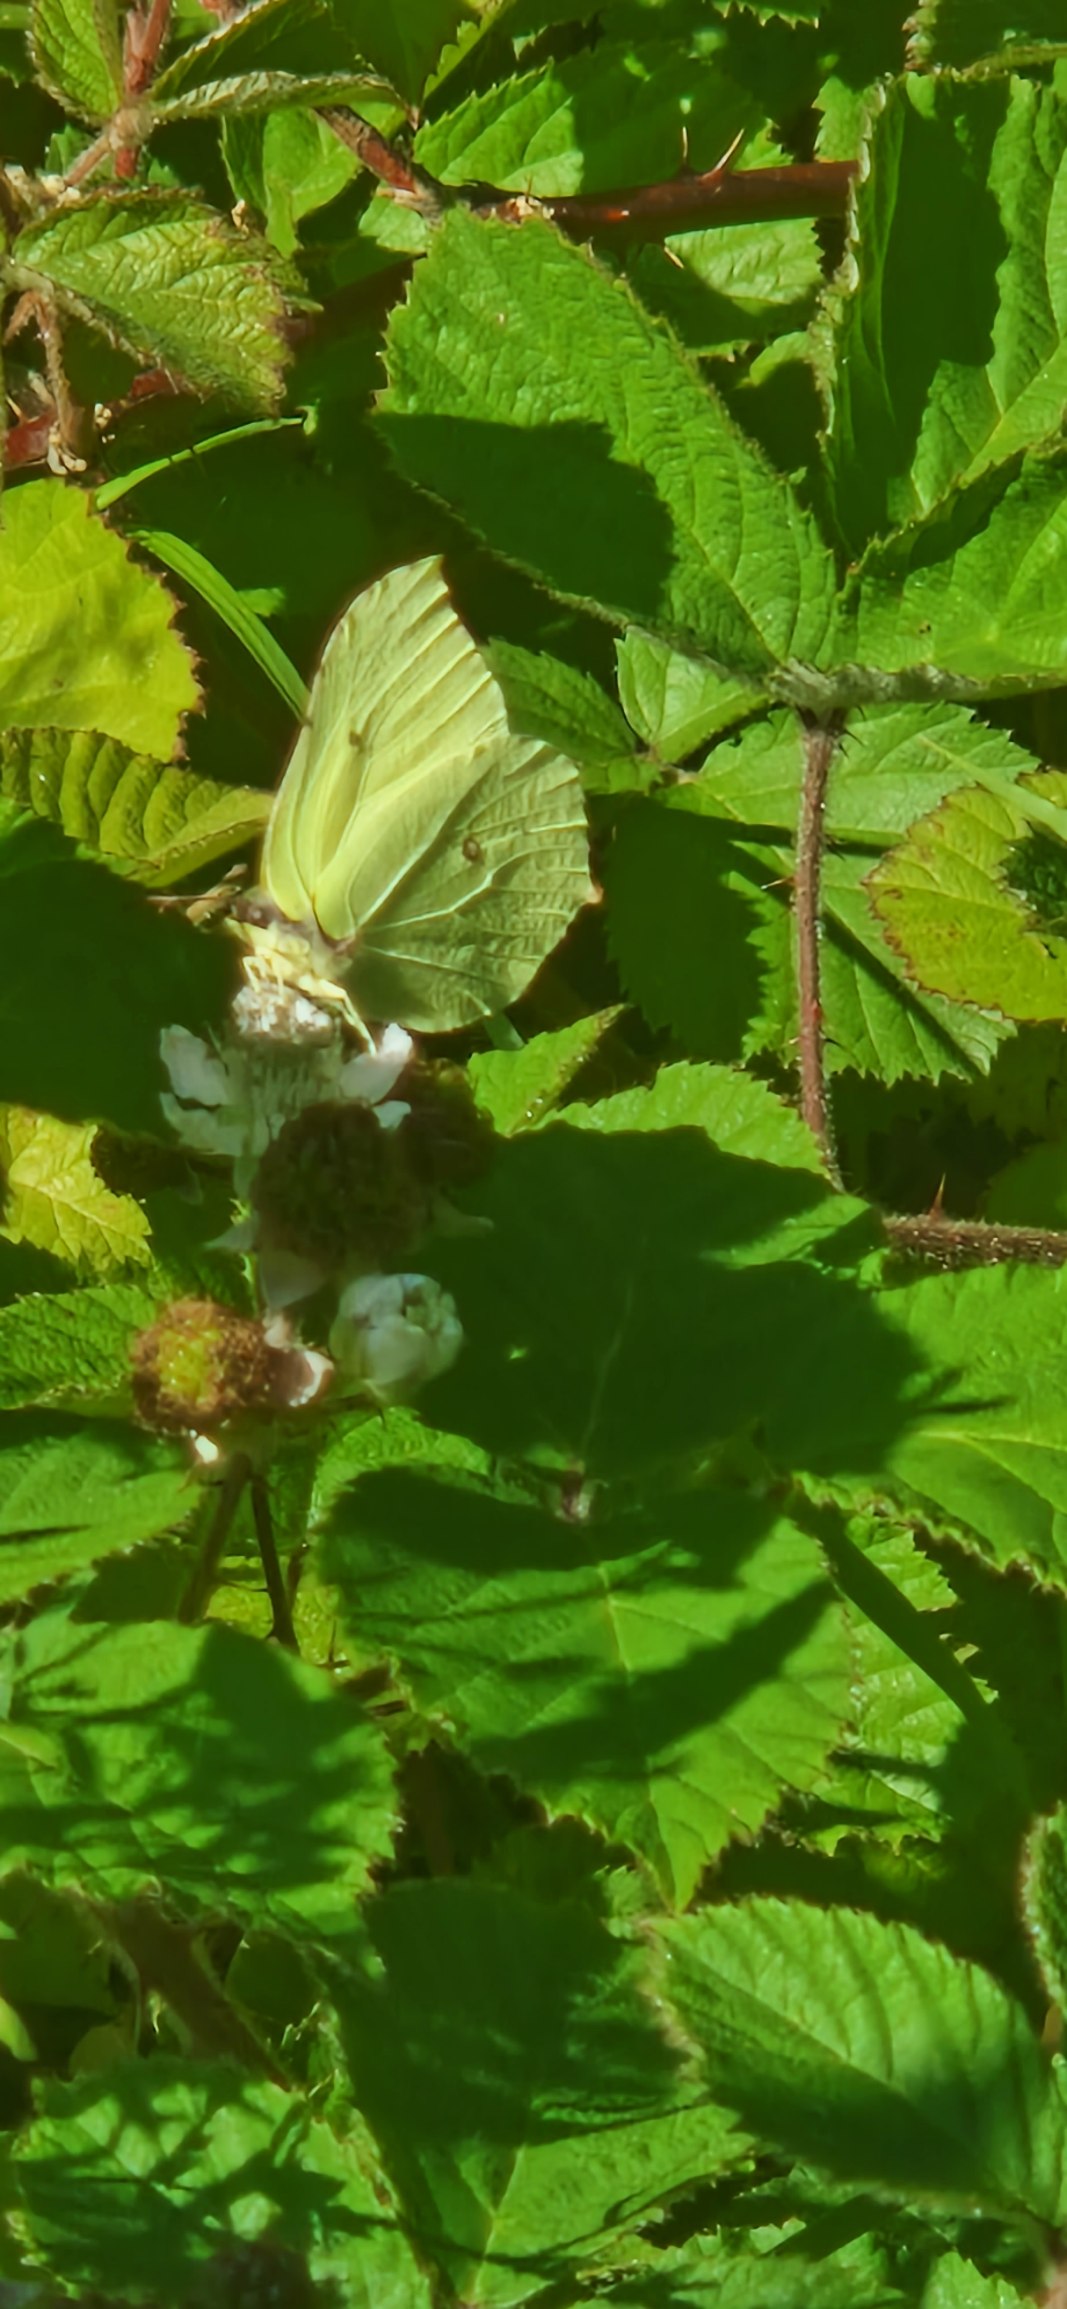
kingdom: Animalia
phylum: Arthropoda
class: Insecta
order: Lepidoptera
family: Pieridae
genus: Gonepteryx
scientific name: Gonepteryx rhamni
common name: Citronsommerfugl
